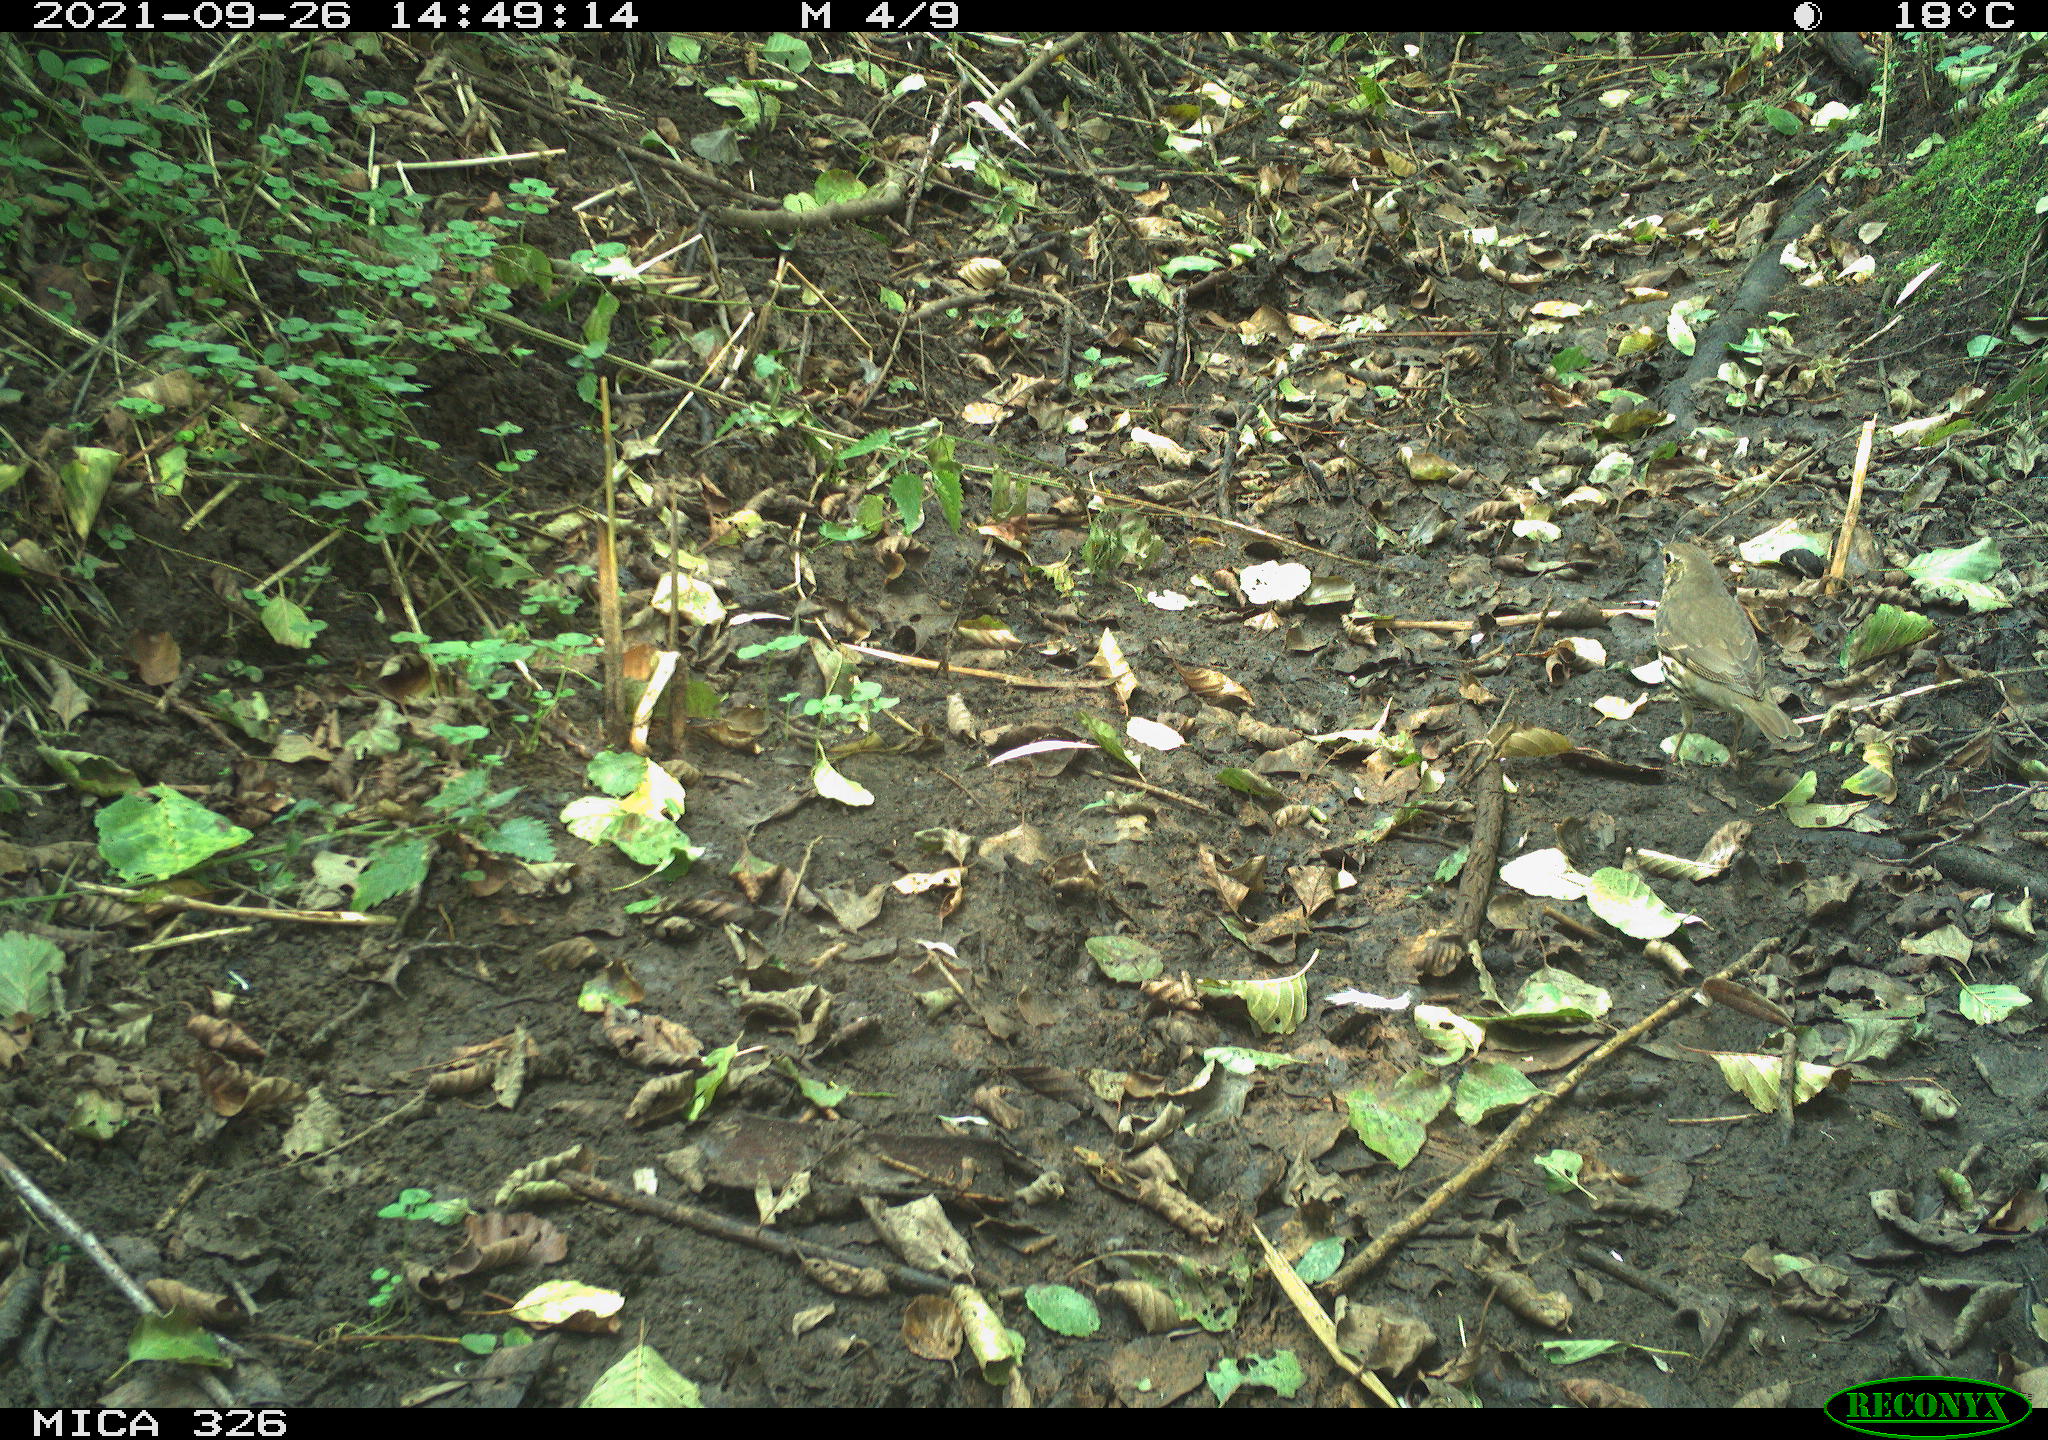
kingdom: Animalia
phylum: Chordata
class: Aves
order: Passeriformes
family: Turdidae
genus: Turdus
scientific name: Turdus philomelos
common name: Song thrush
